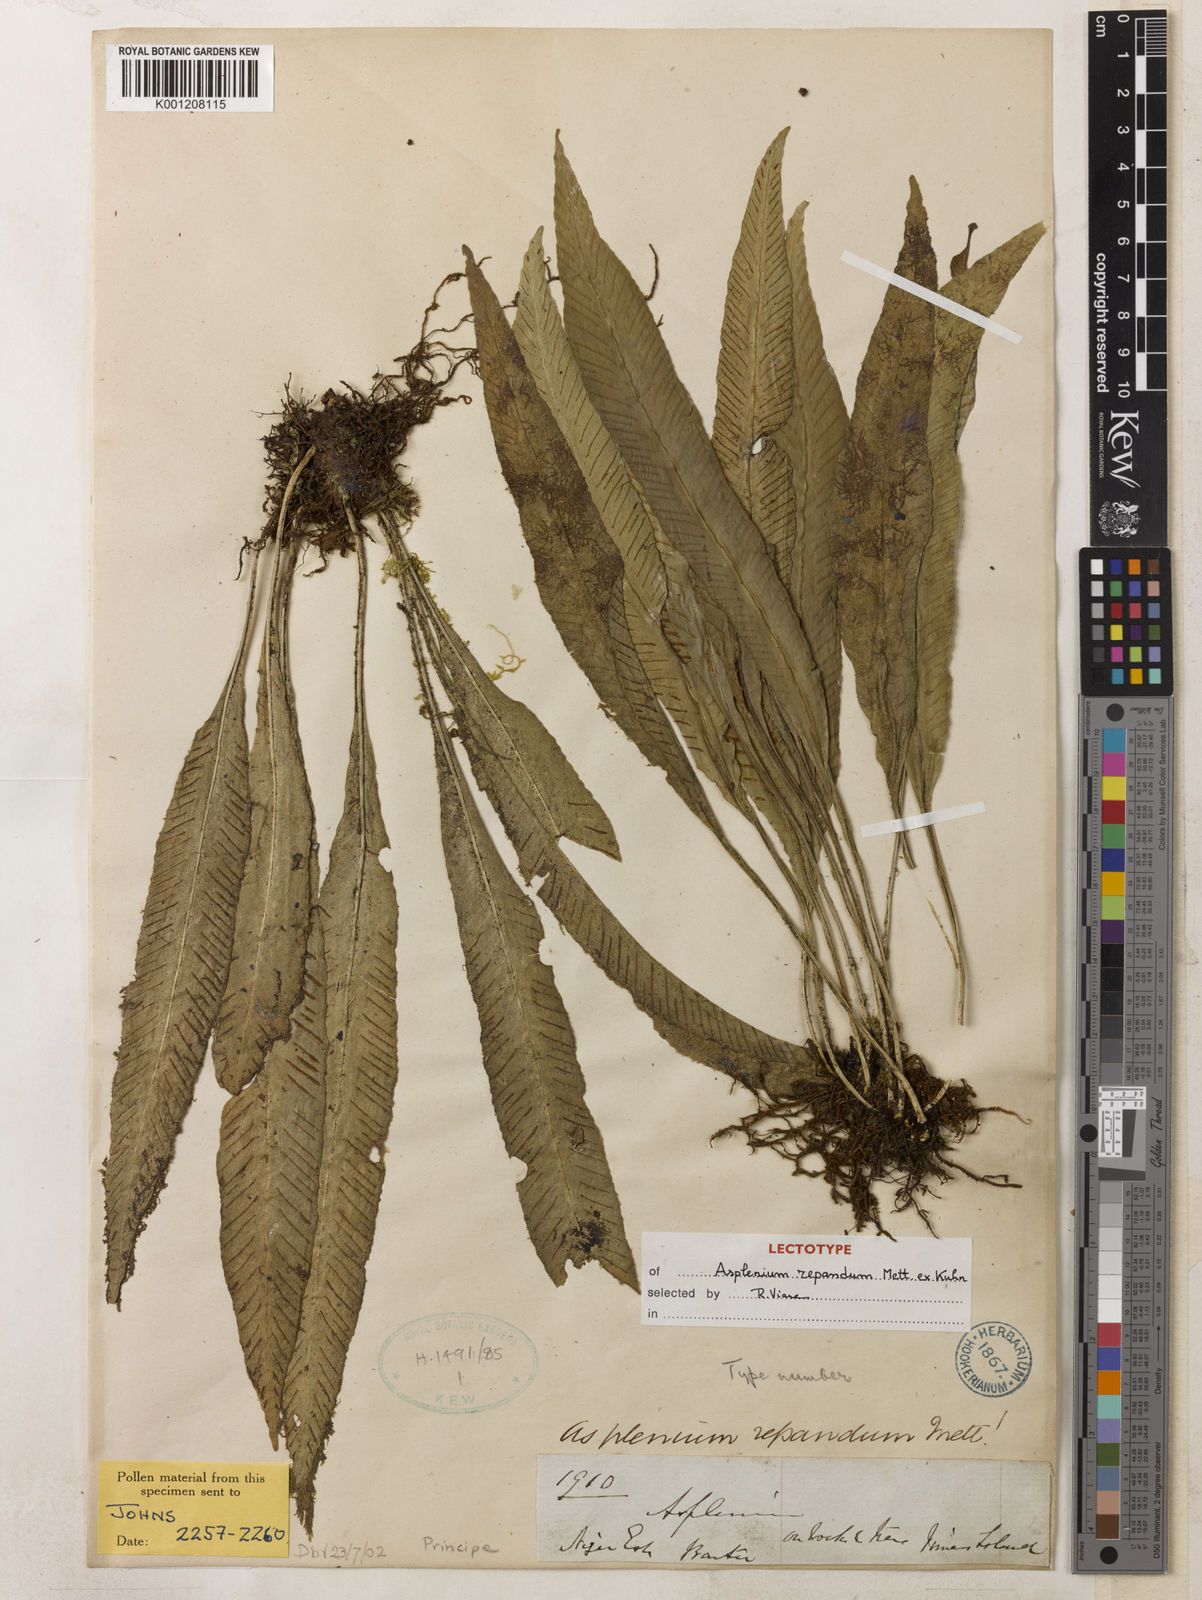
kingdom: Plantae
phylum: Tracheophyta
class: Polypodiopsida
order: Polypodiales
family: Aspleniaceae
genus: Asplenium
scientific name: Asplenium variabile
